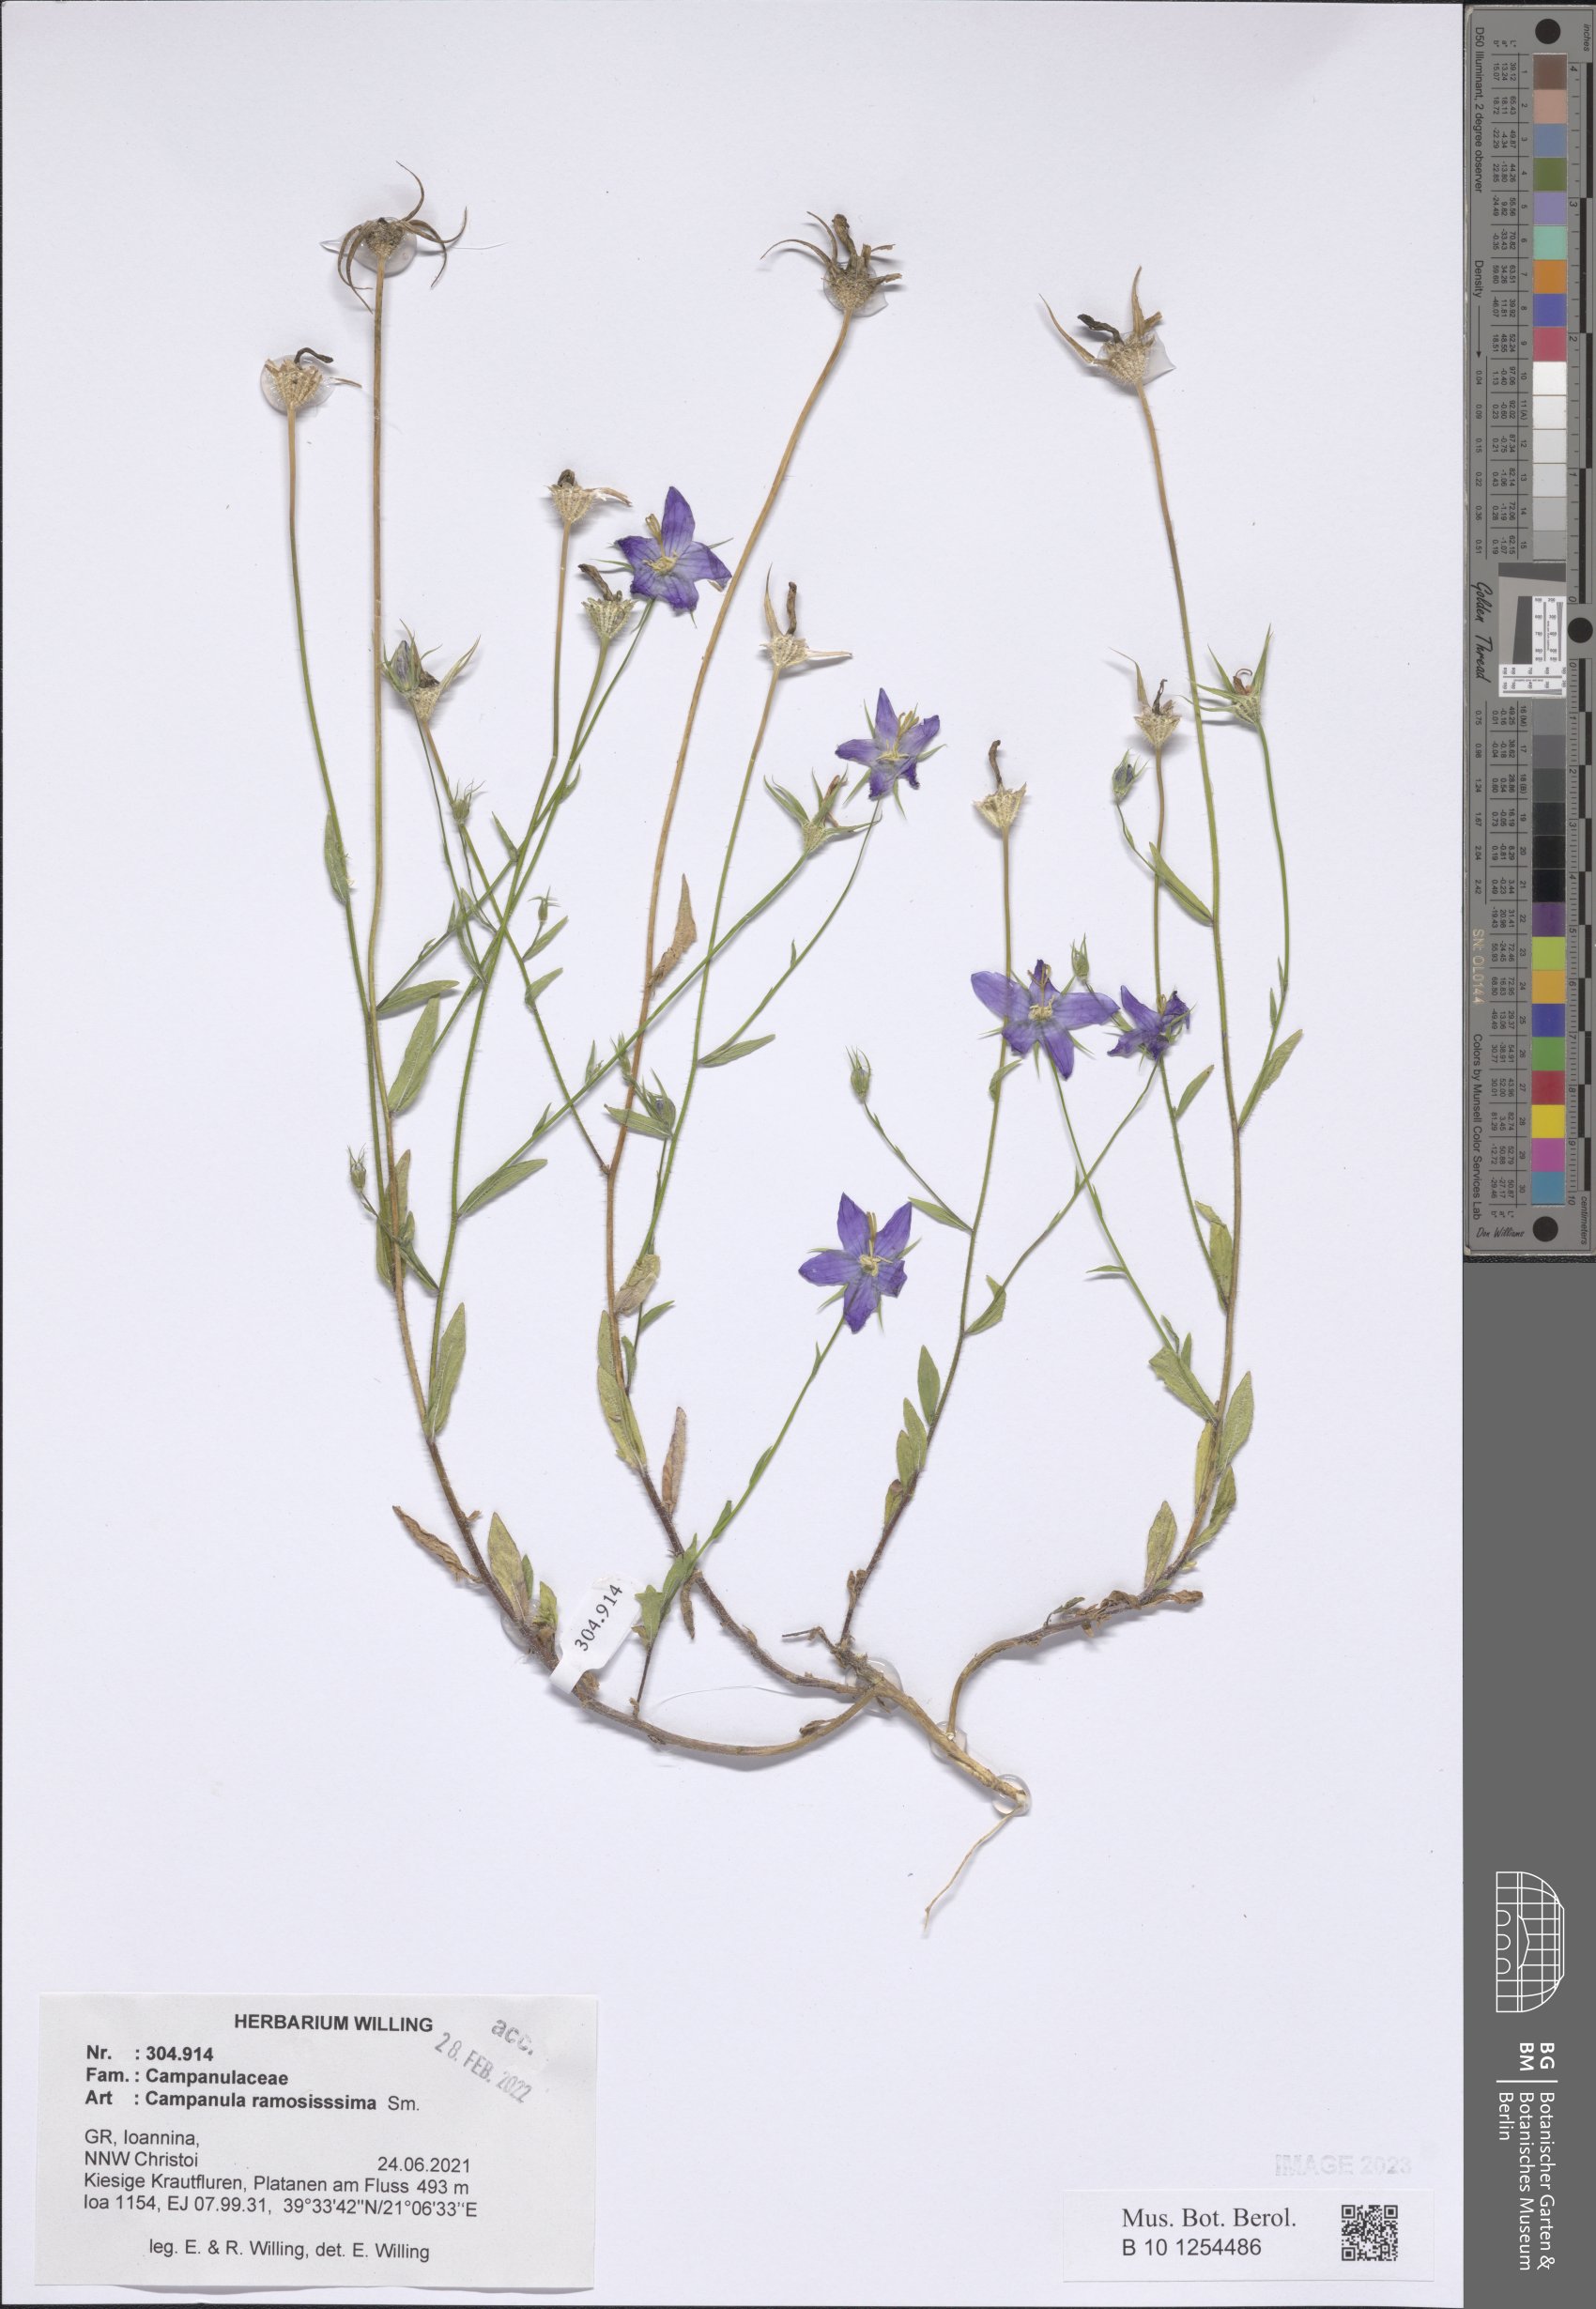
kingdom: Plantae
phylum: Tracheophyta
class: Magnoliopsida
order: Asterales
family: Campanulaceae
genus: Campanula
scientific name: Campanula ramosissima
